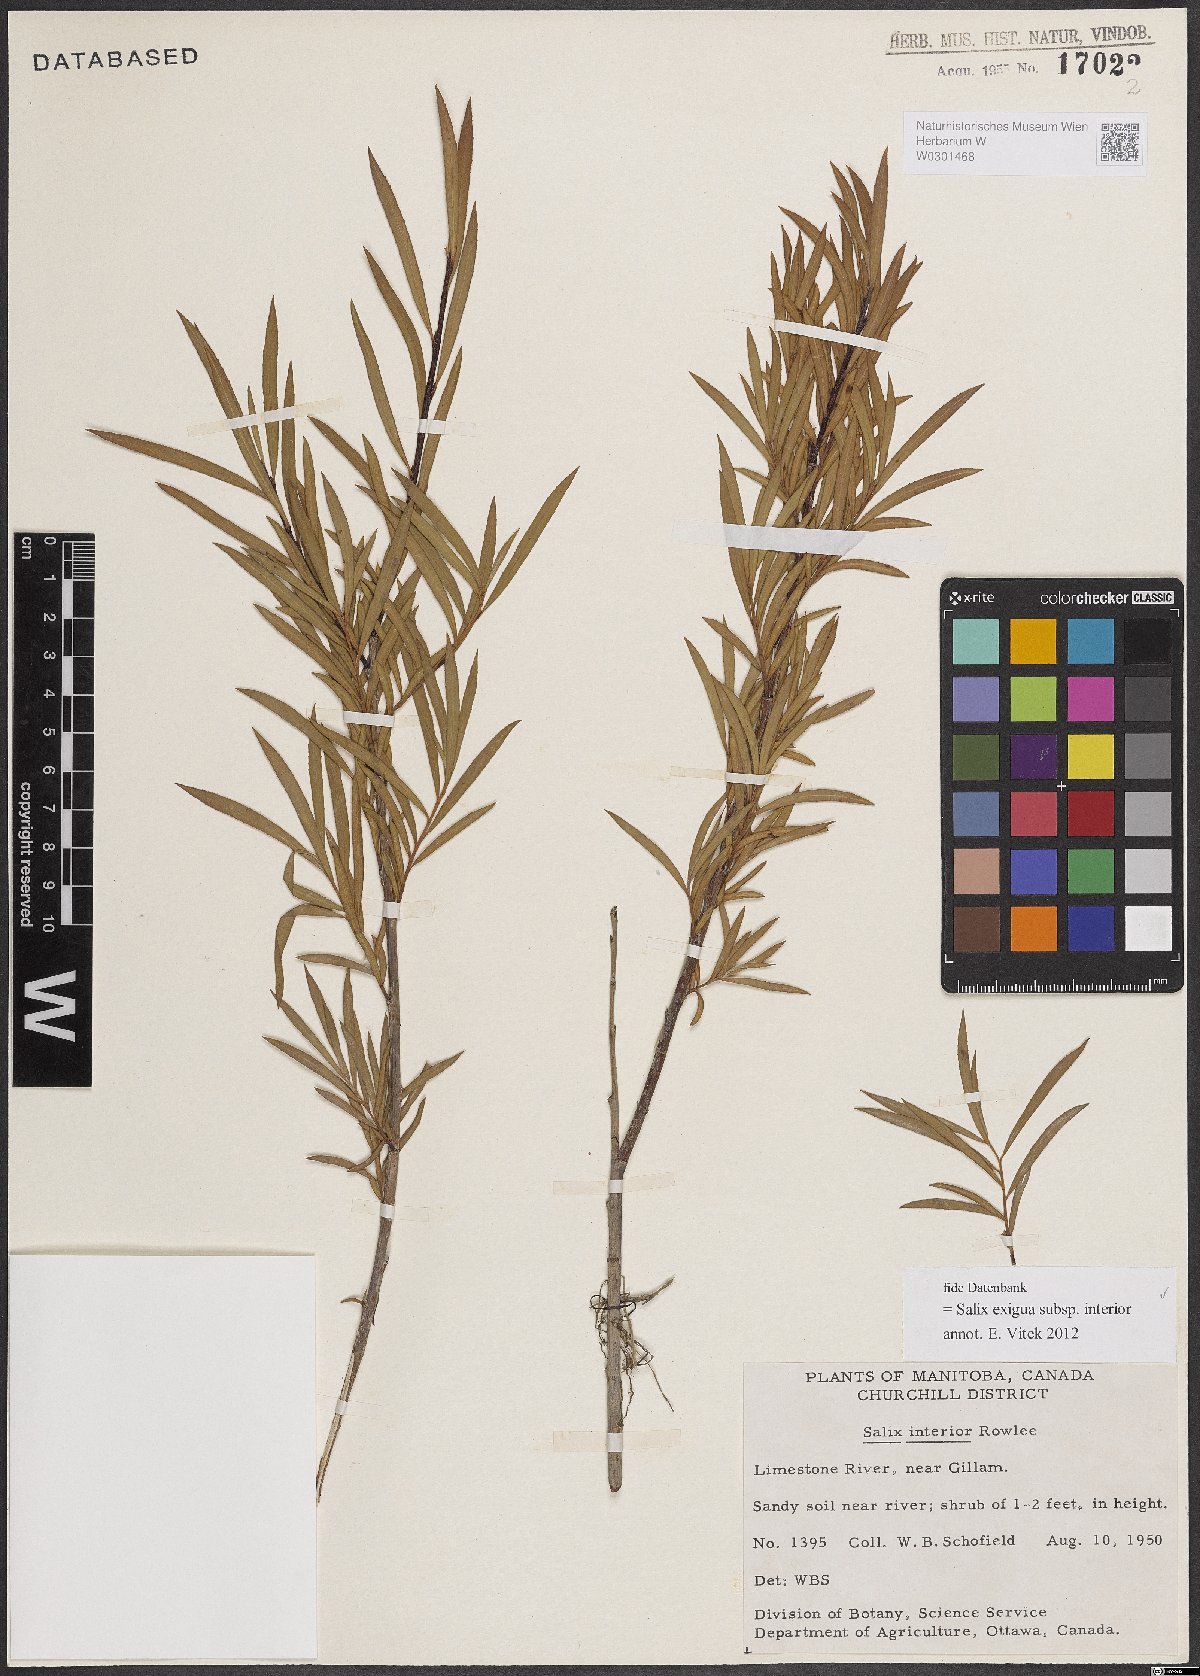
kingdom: Plantae
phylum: Tracheophyta
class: Magnoliopsida
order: Malpighiales
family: Salicaceae
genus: Salix
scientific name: Salix interior
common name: Sandbar willow
